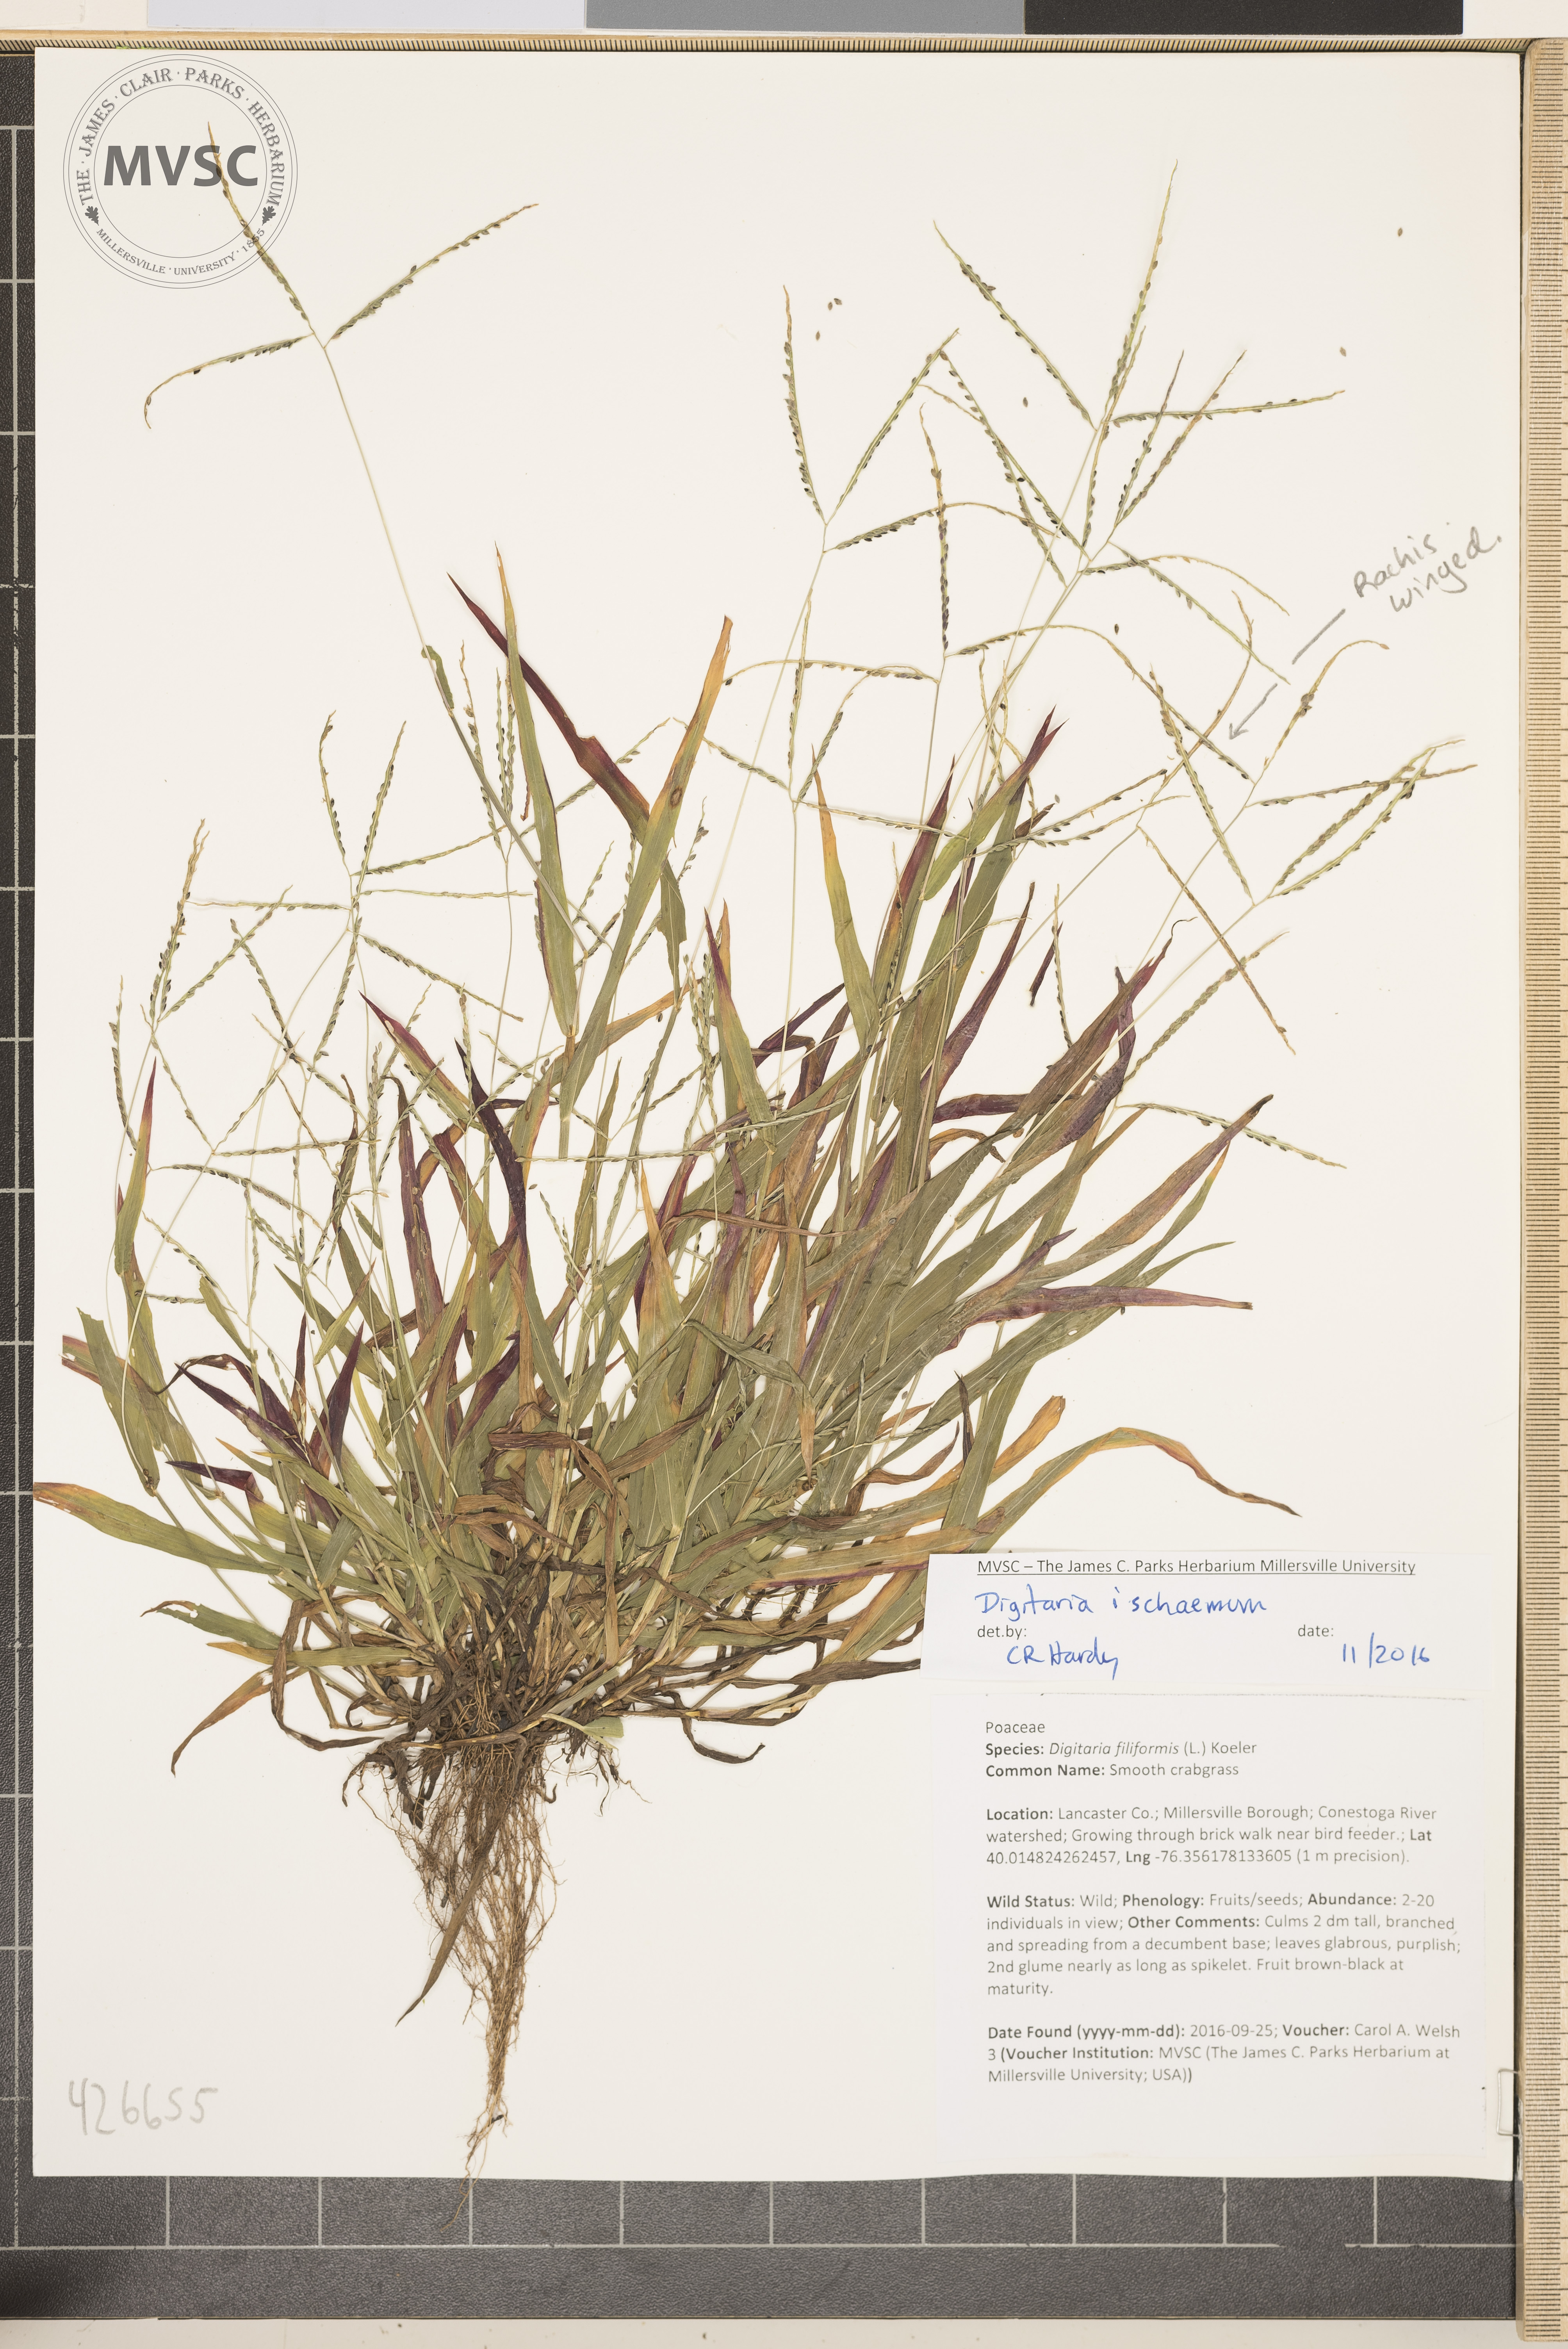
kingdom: Plantae
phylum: Tracheophyta
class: Liliopsida
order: Poales
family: Poaceae
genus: Digitaria
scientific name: Digitaria ischaemum
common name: Smooth crabgrass
